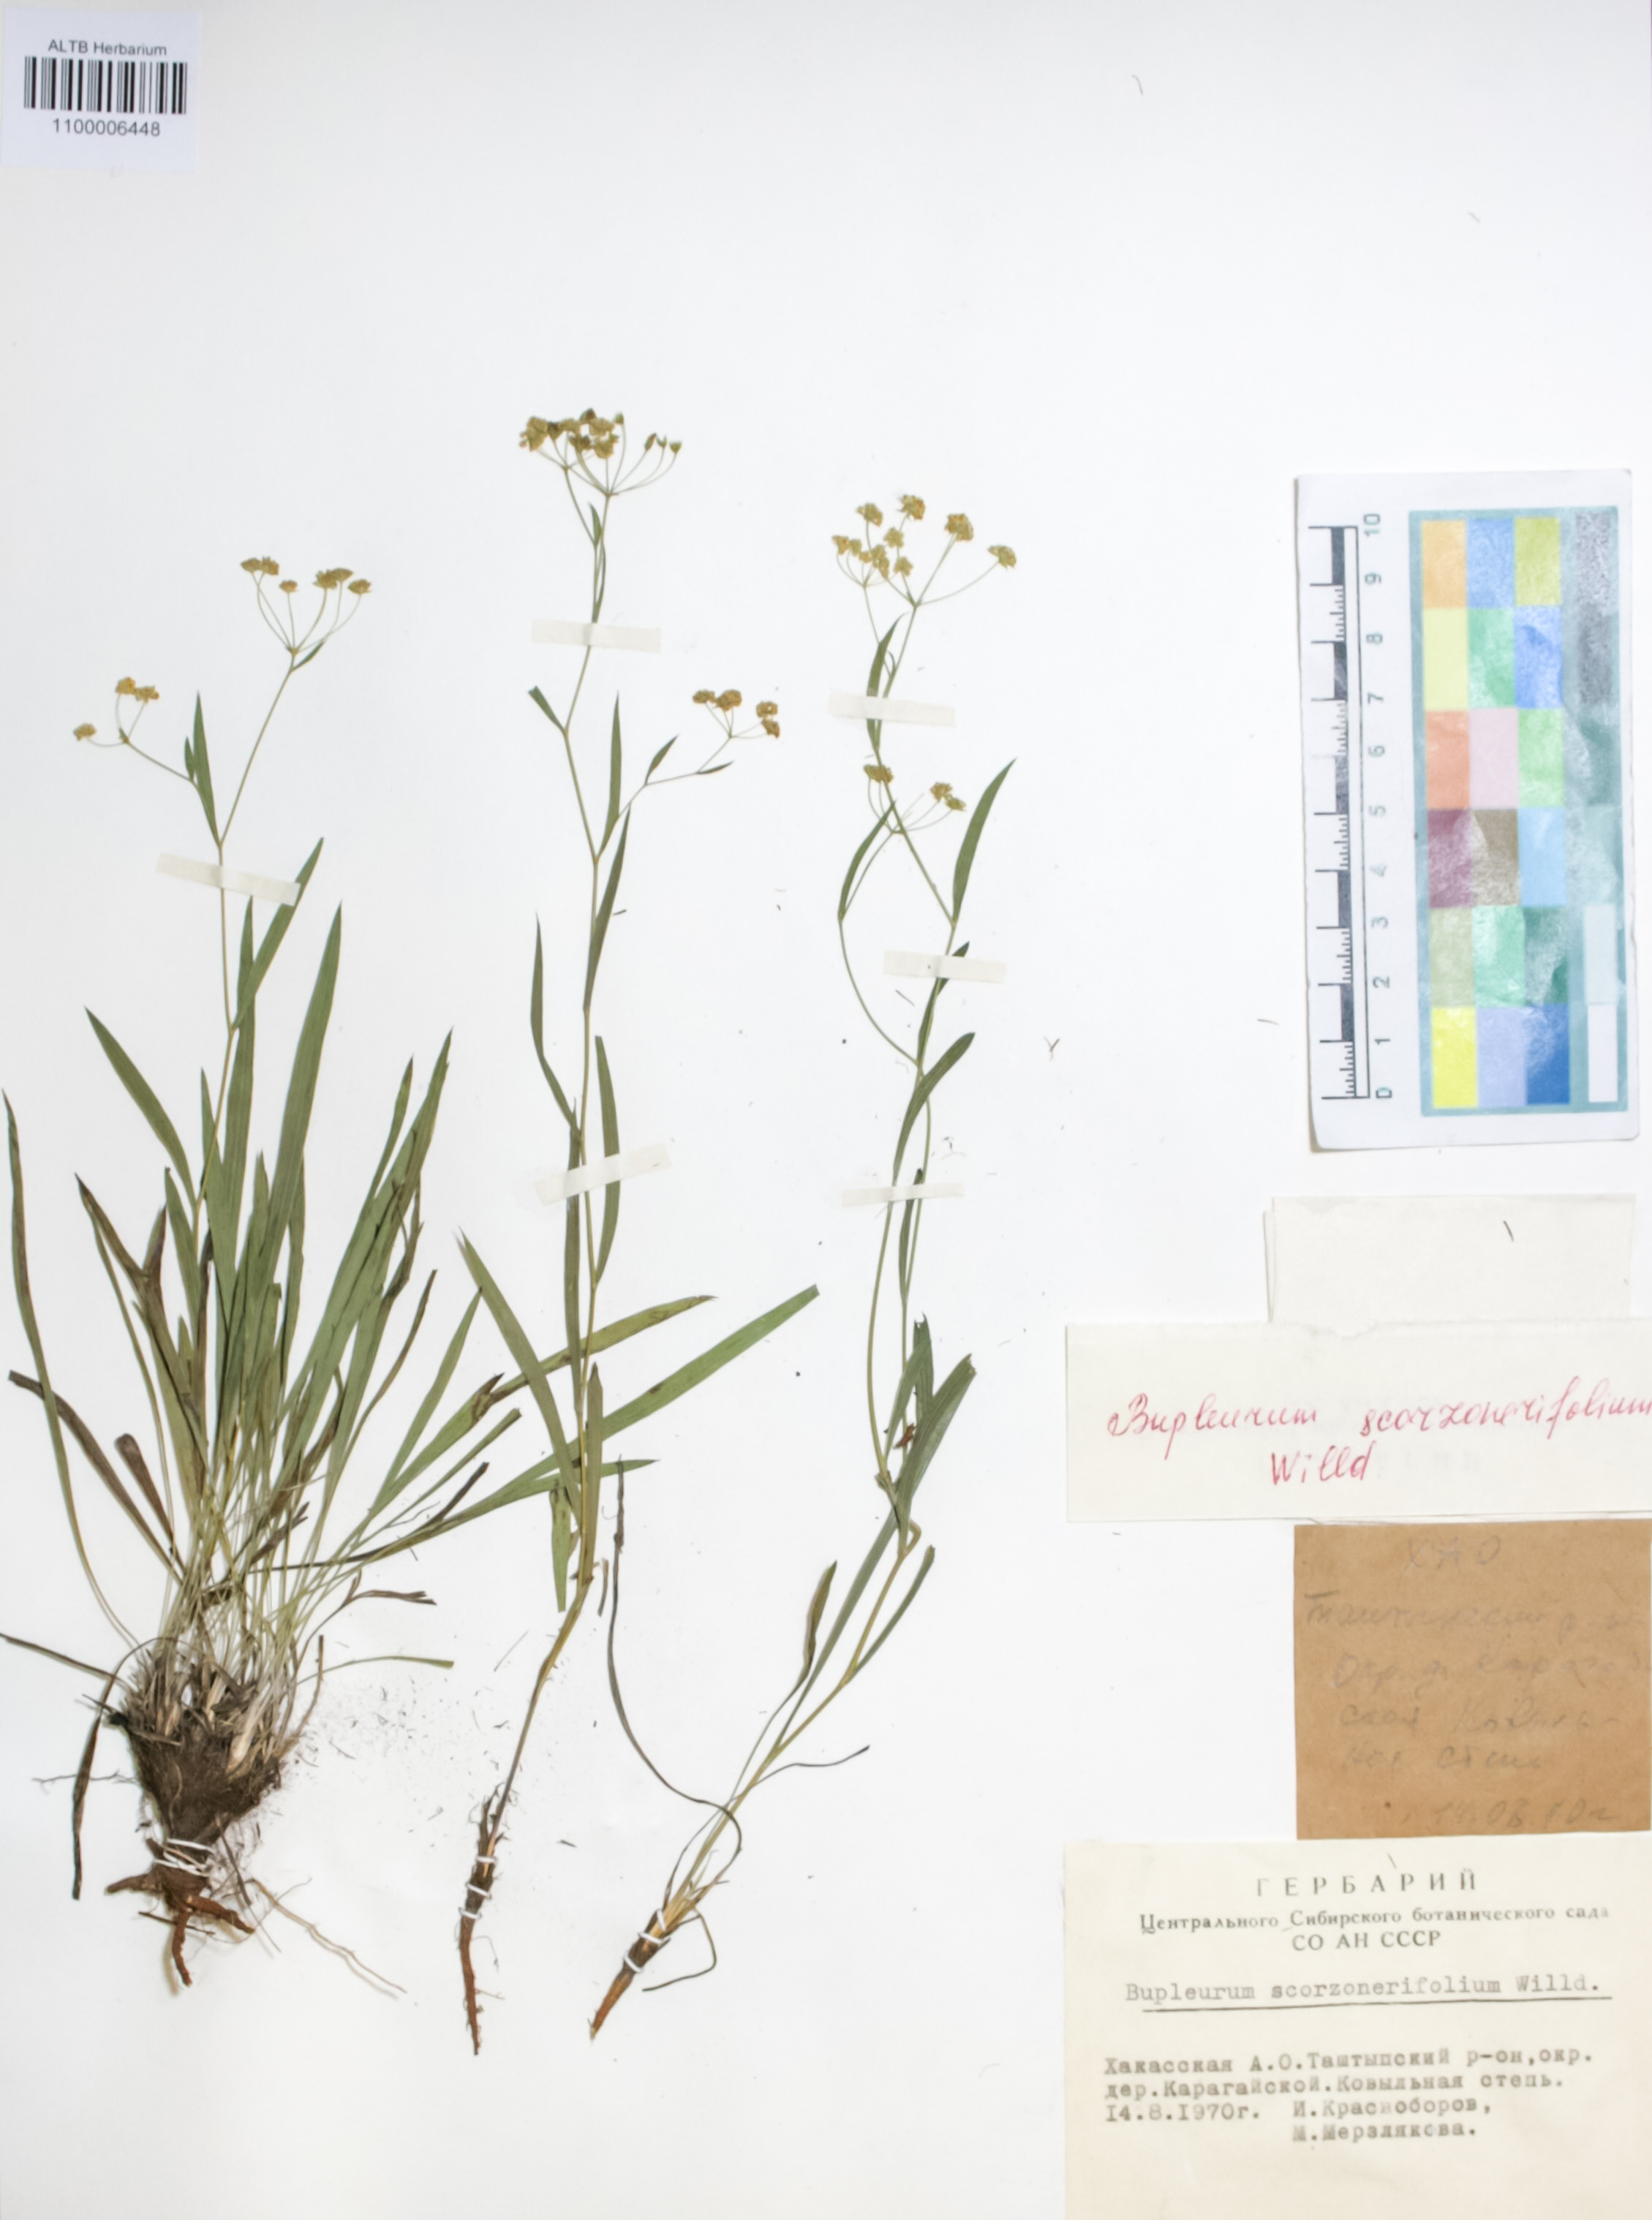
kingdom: Plantae
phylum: Tracheophyta
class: Magnoliopsida
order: Apiales
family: Apiaceae
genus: Bupleurum
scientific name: Bupleurum scorzonerifolium
